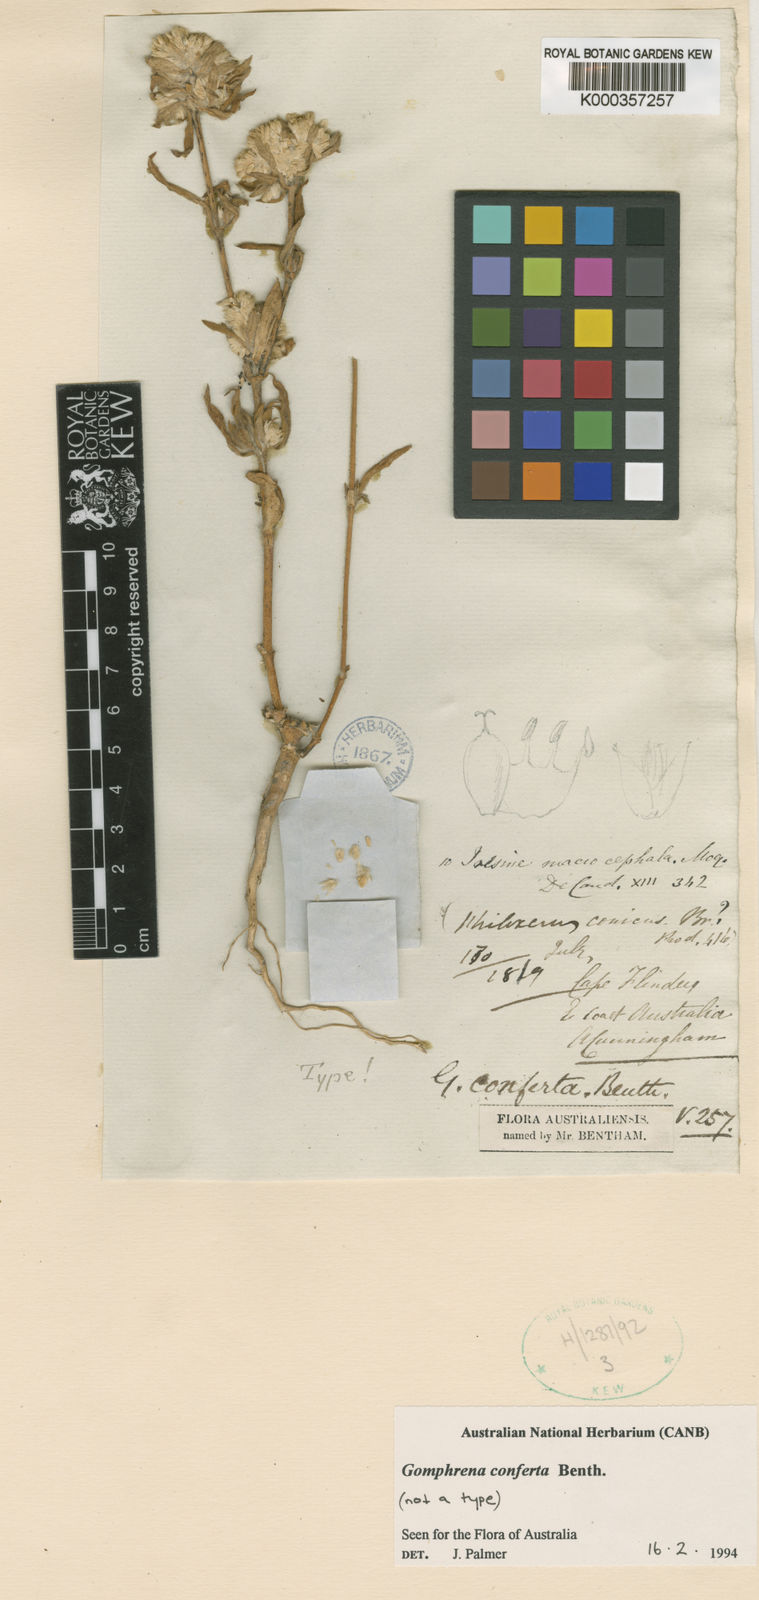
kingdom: Plantae
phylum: Tracheophyta
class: Magnoliopsida
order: Caryophyllales
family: Amaranthaceae
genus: Gomphrena
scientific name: Gomphrena conferta
